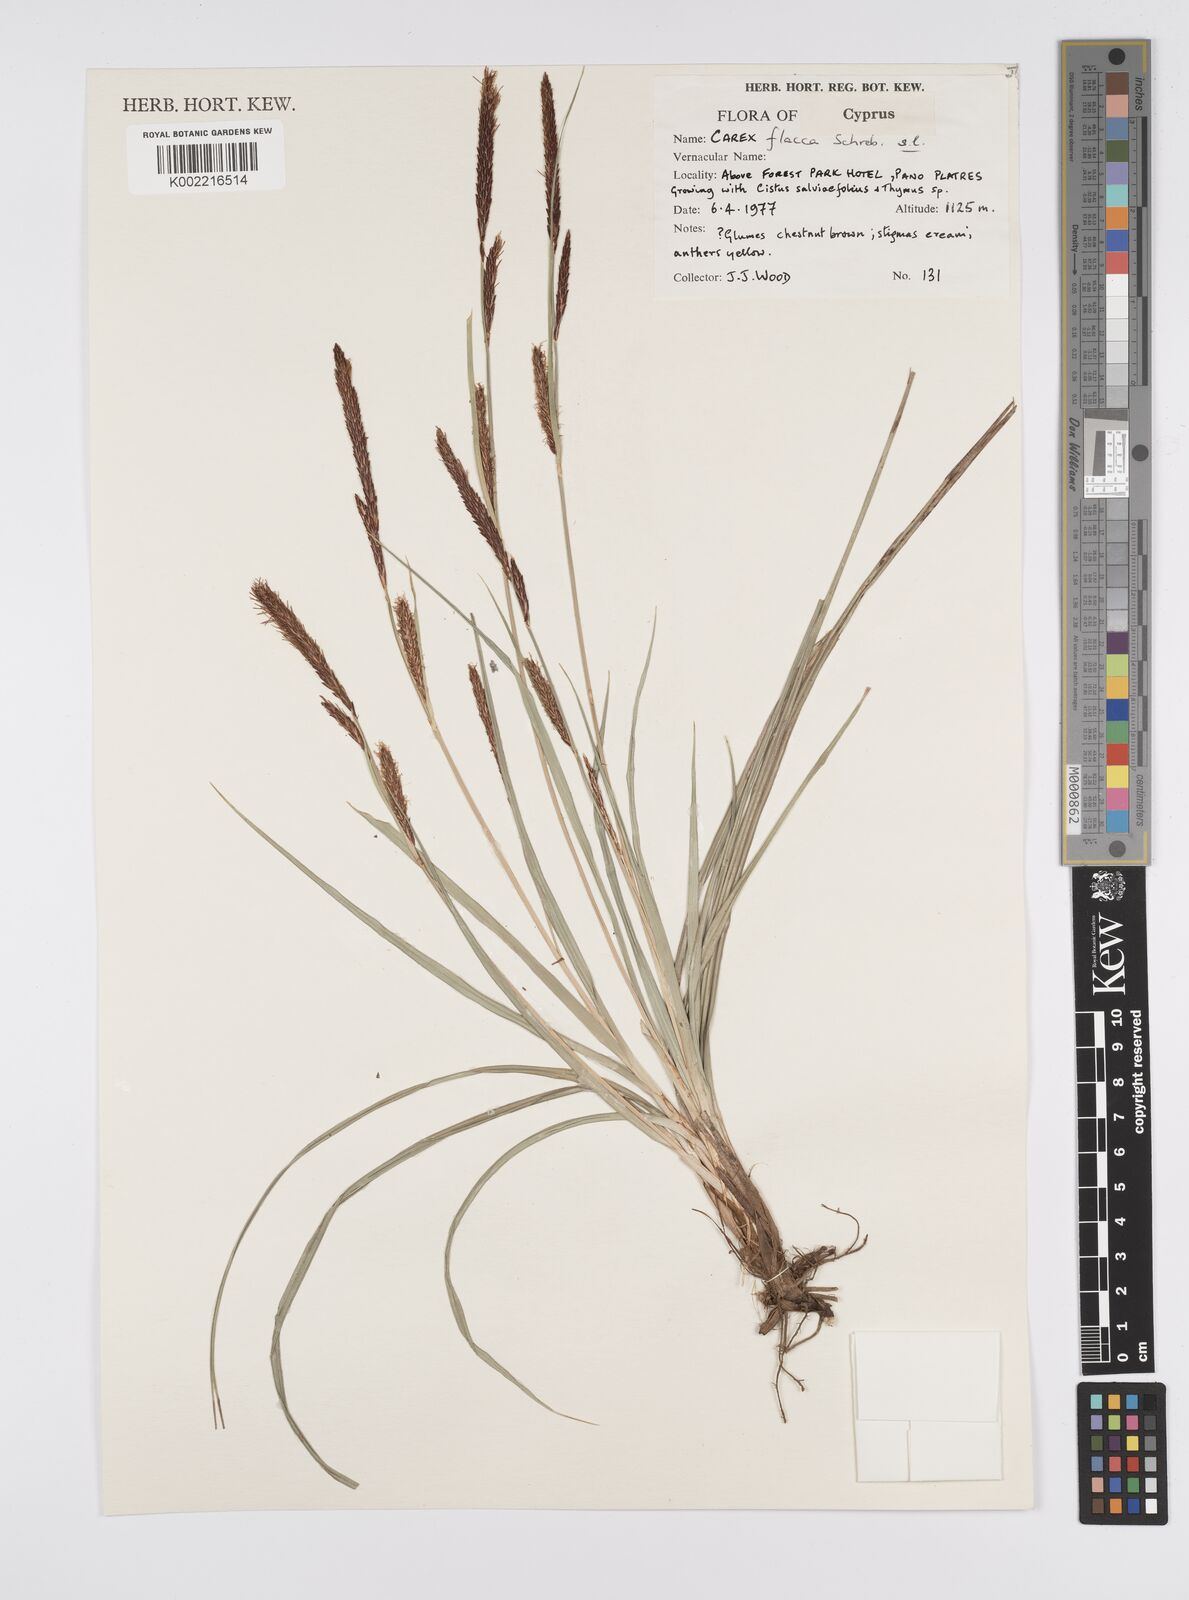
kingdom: Plantae
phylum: Tracheophyta
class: Liliopsida
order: Poales
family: Cyperaceae
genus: Carex
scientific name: Carex flacca
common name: Glaucous sedge
